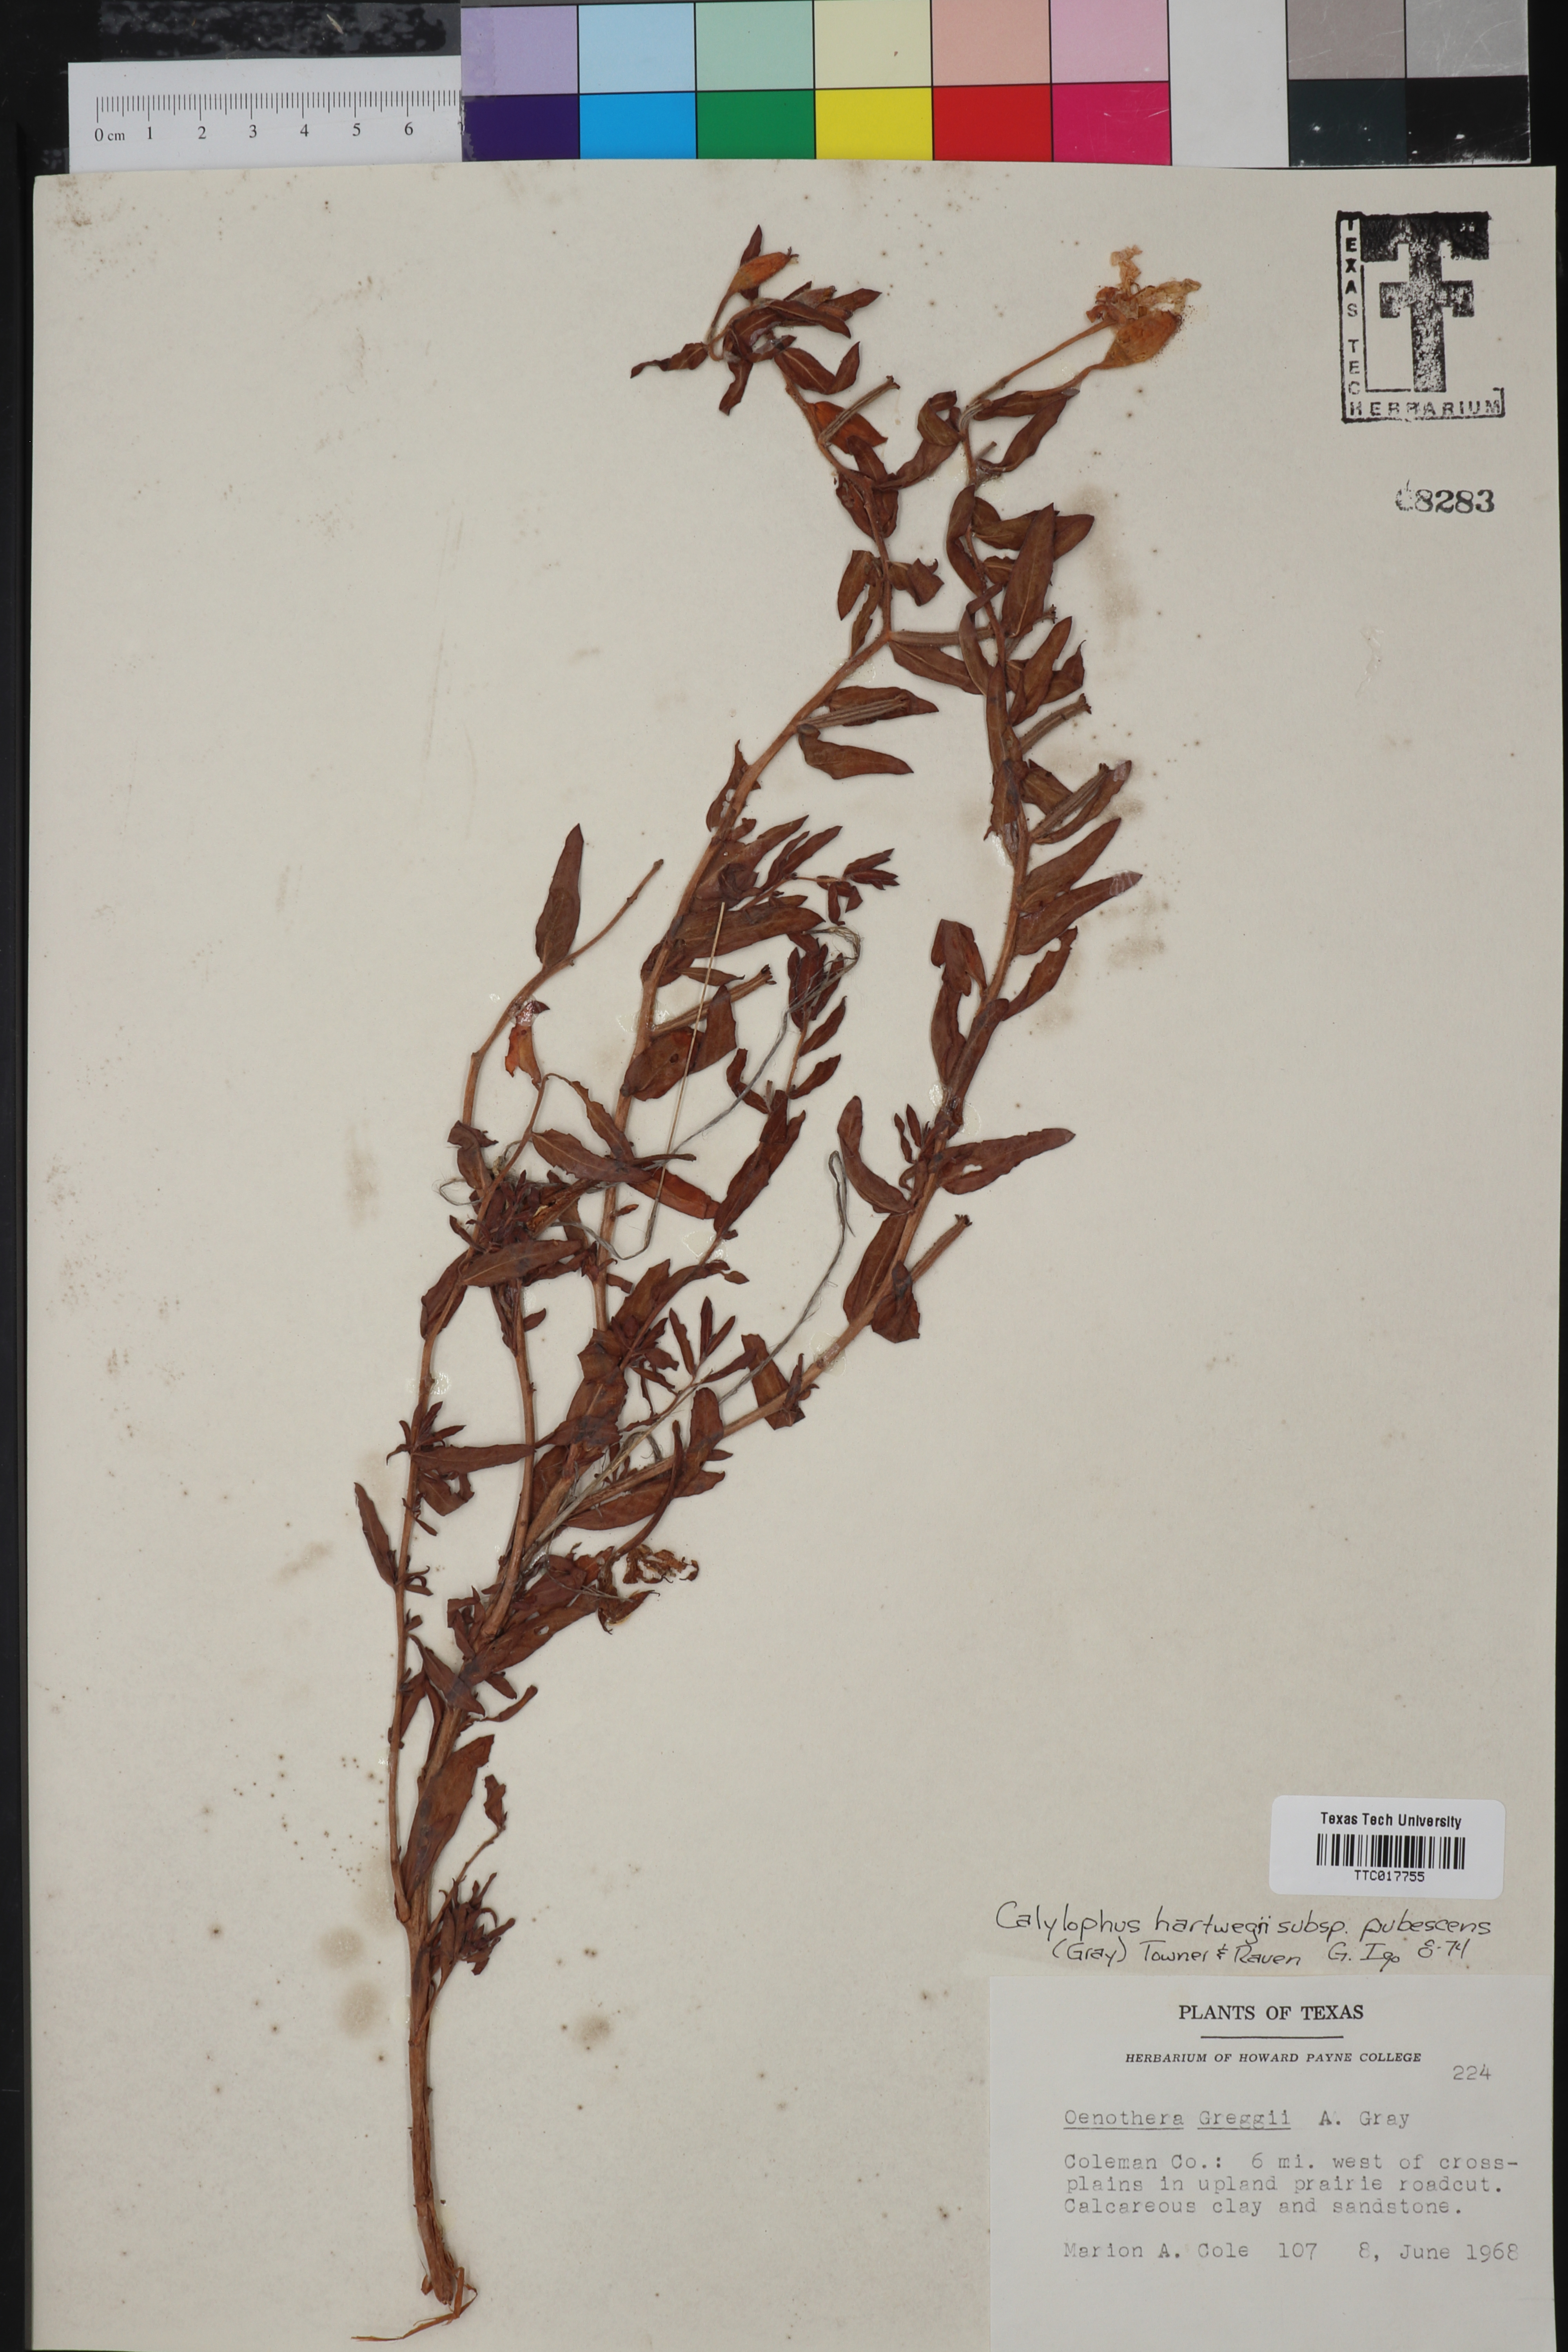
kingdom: Plantae
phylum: Tracheophyta
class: Magnoliopsida
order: Myrtales
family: Onagraceae
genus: Oenothera
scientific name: Oenothera hartwegii
